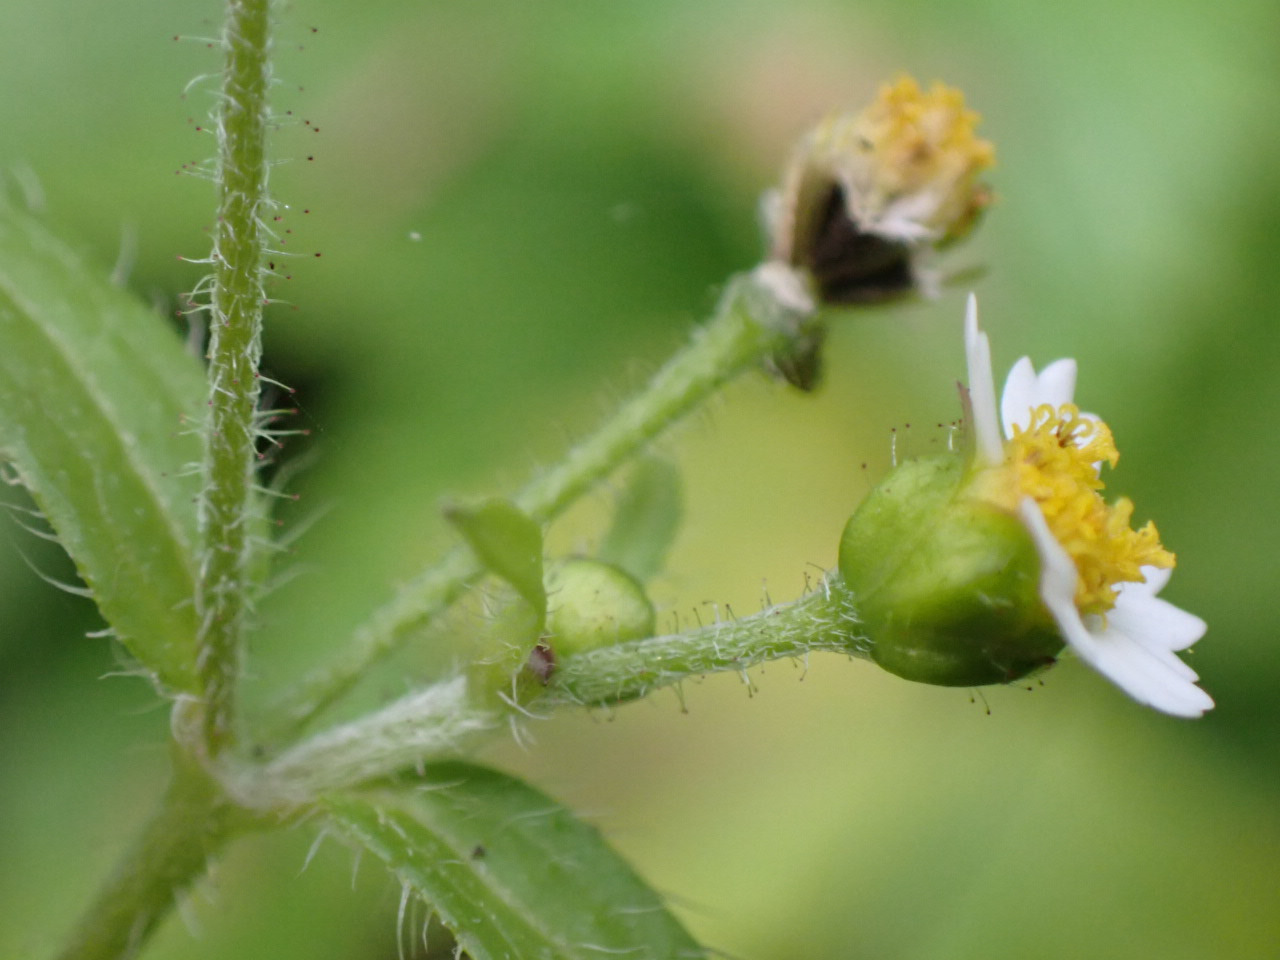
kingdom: Plantae
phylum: Tracheophyta
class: Magnoliopsida
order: Asterales
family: Asteraceae
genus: Galinsoga
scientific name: Galinsoga quadriradiata
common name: Kirtel-kortstråle
